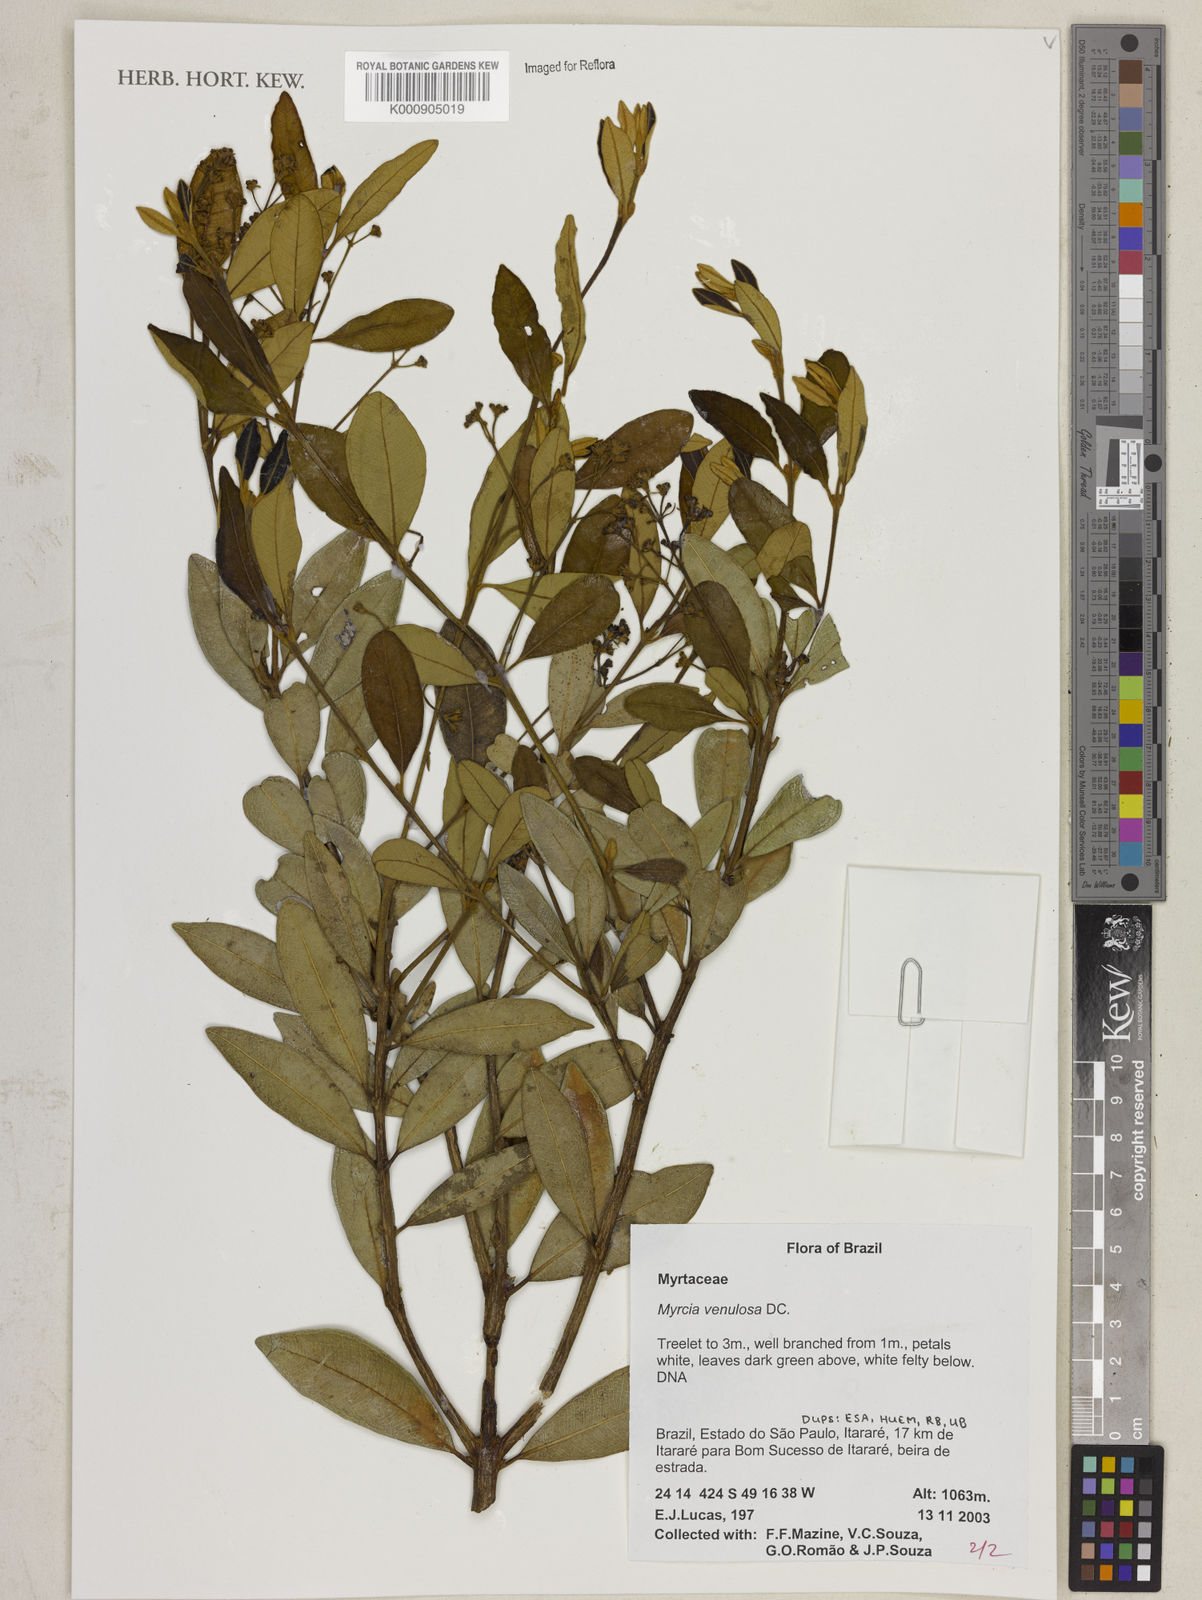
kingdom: Plantae
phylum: Tracheophyta
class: Magnoliopsida
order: Myrtales
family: Myrtaceae
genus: Myrcia
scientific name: Myrcia venulosa
